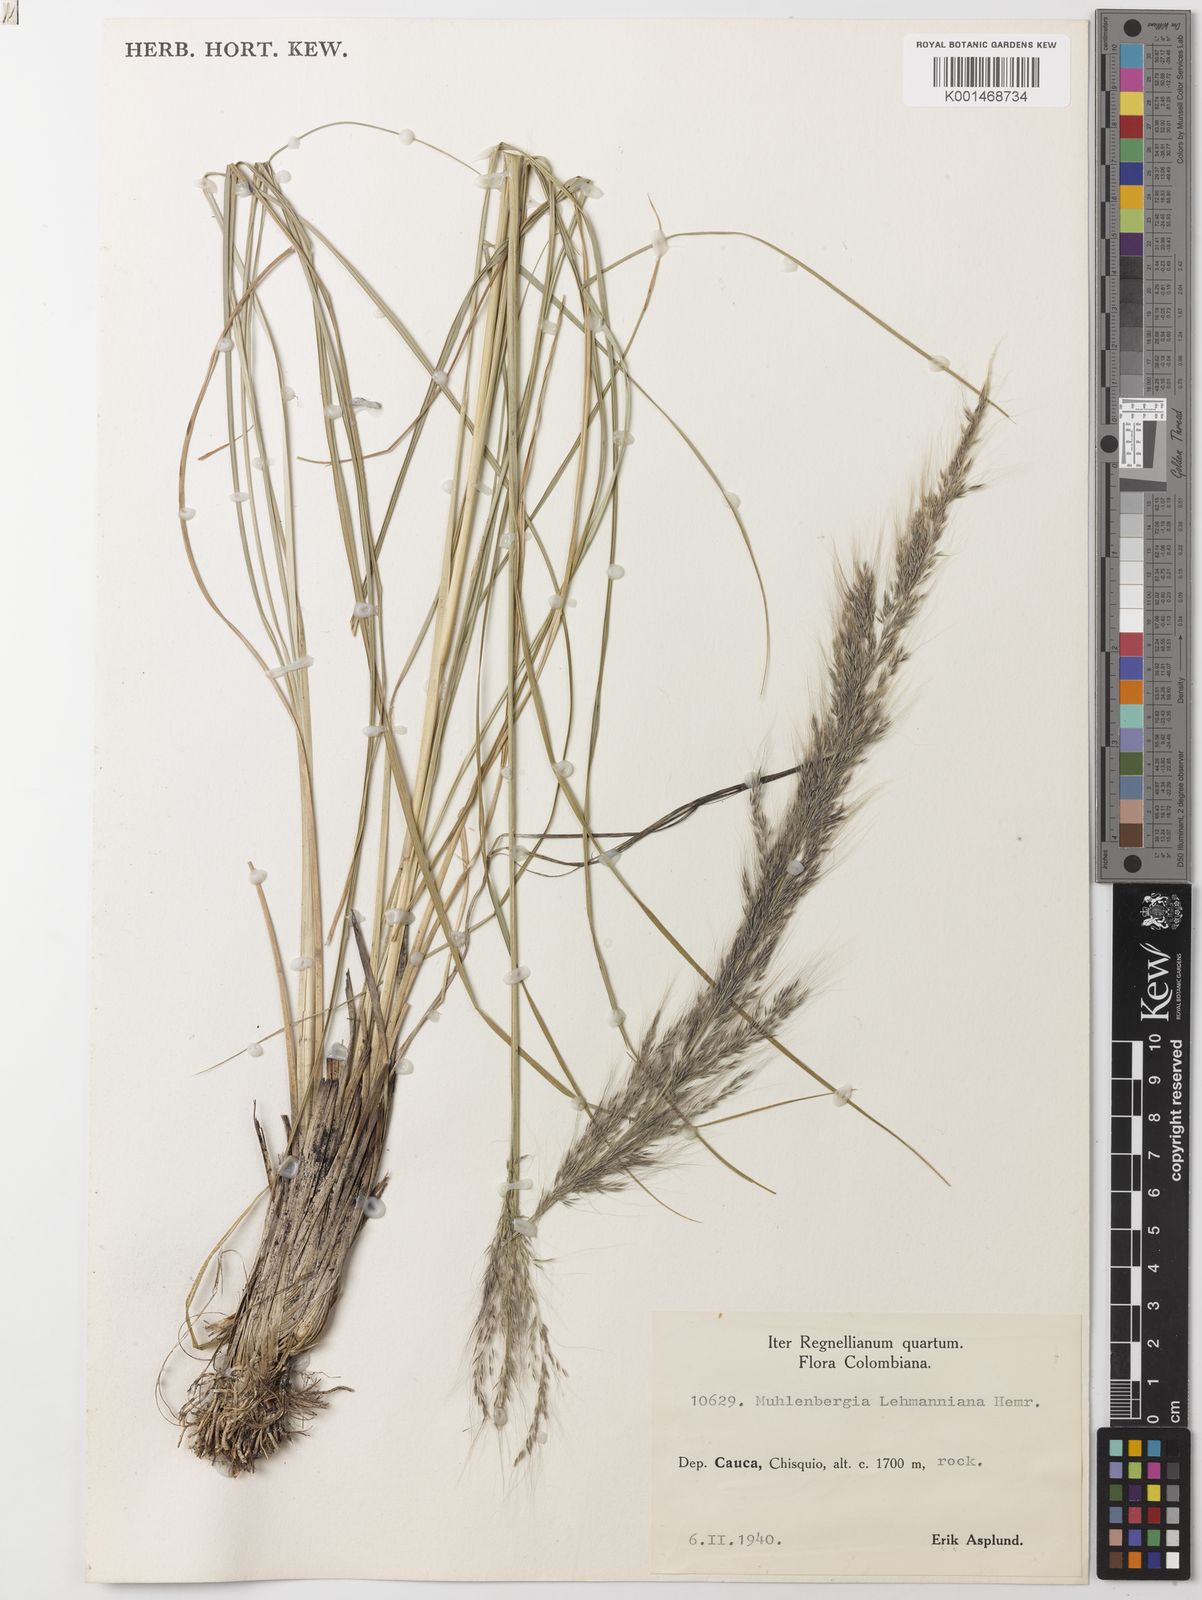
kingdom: Plantae
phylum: Tracheophyta
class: Liliopsida
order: Poales
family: Poaceae
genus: Muhlenbergia
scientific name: Muhlenbergia lehmanniana
